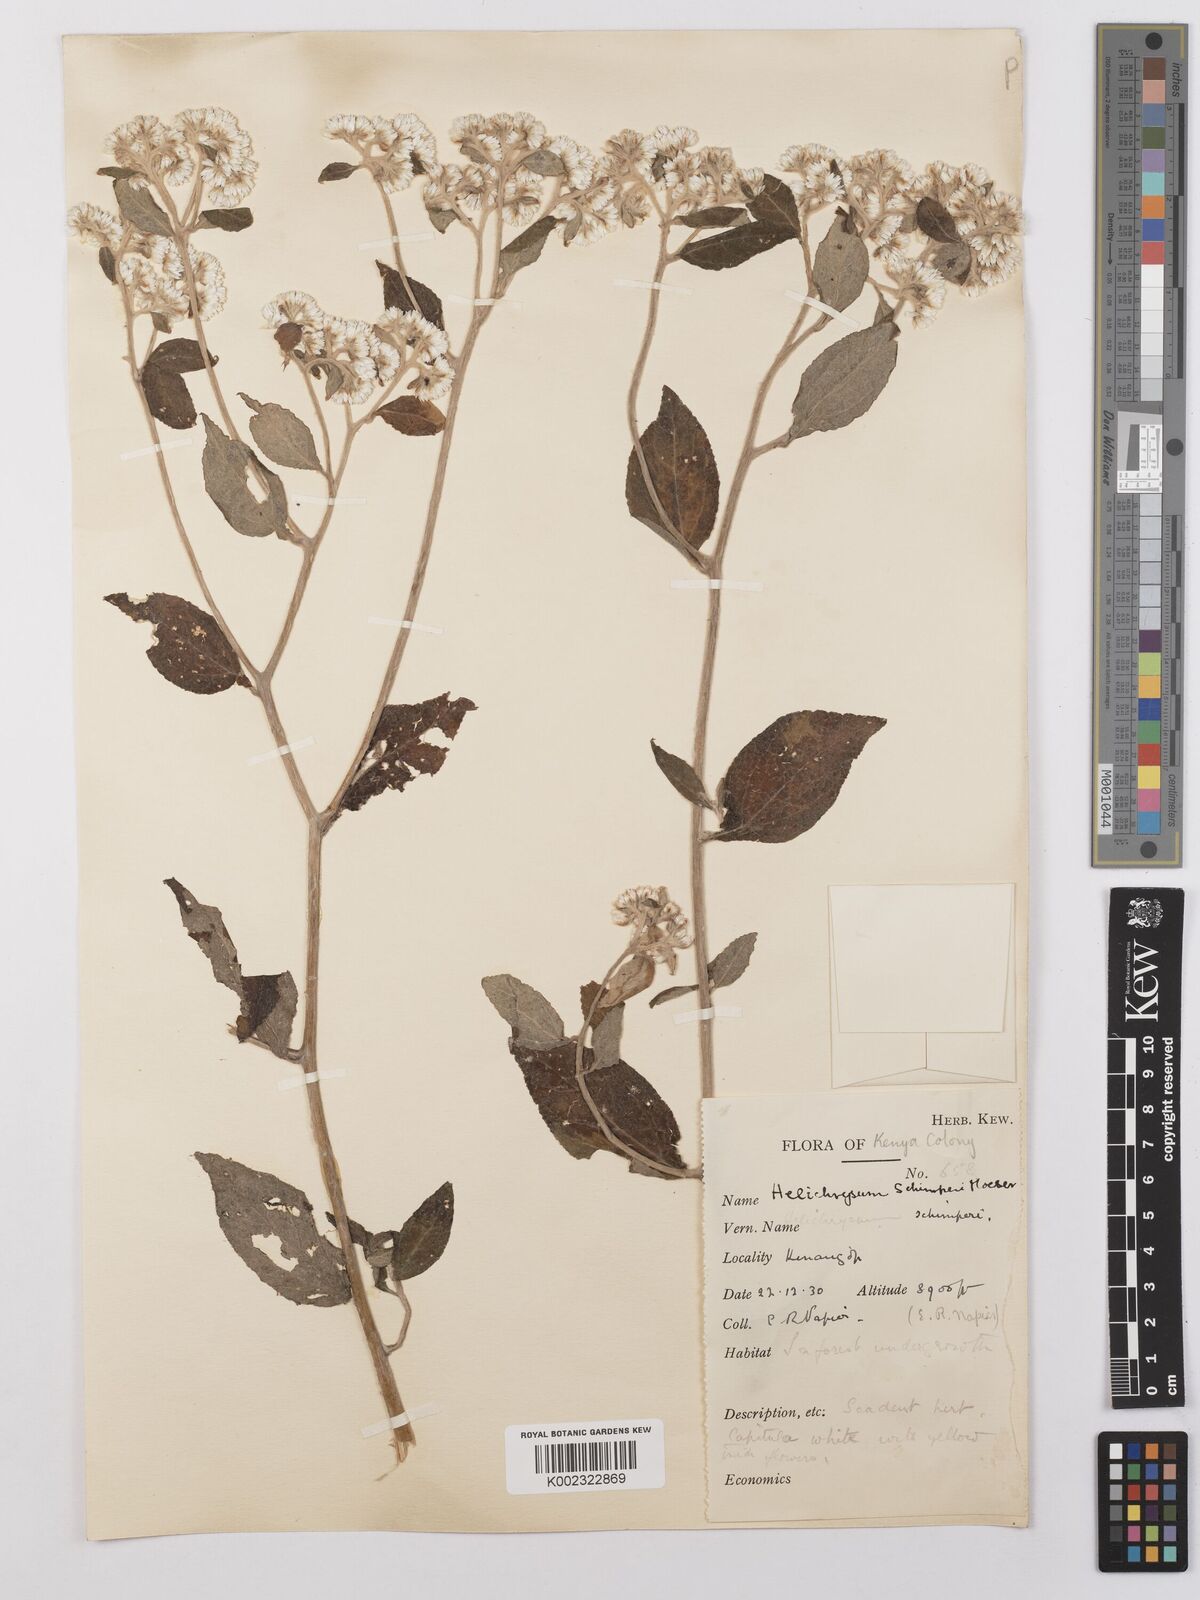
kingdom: Plantae
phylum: Tracheophyta
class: Magnoliopsida
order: Asterales
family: Asteraceae
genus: Helichrysum
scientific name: Helichrysum schimperi
